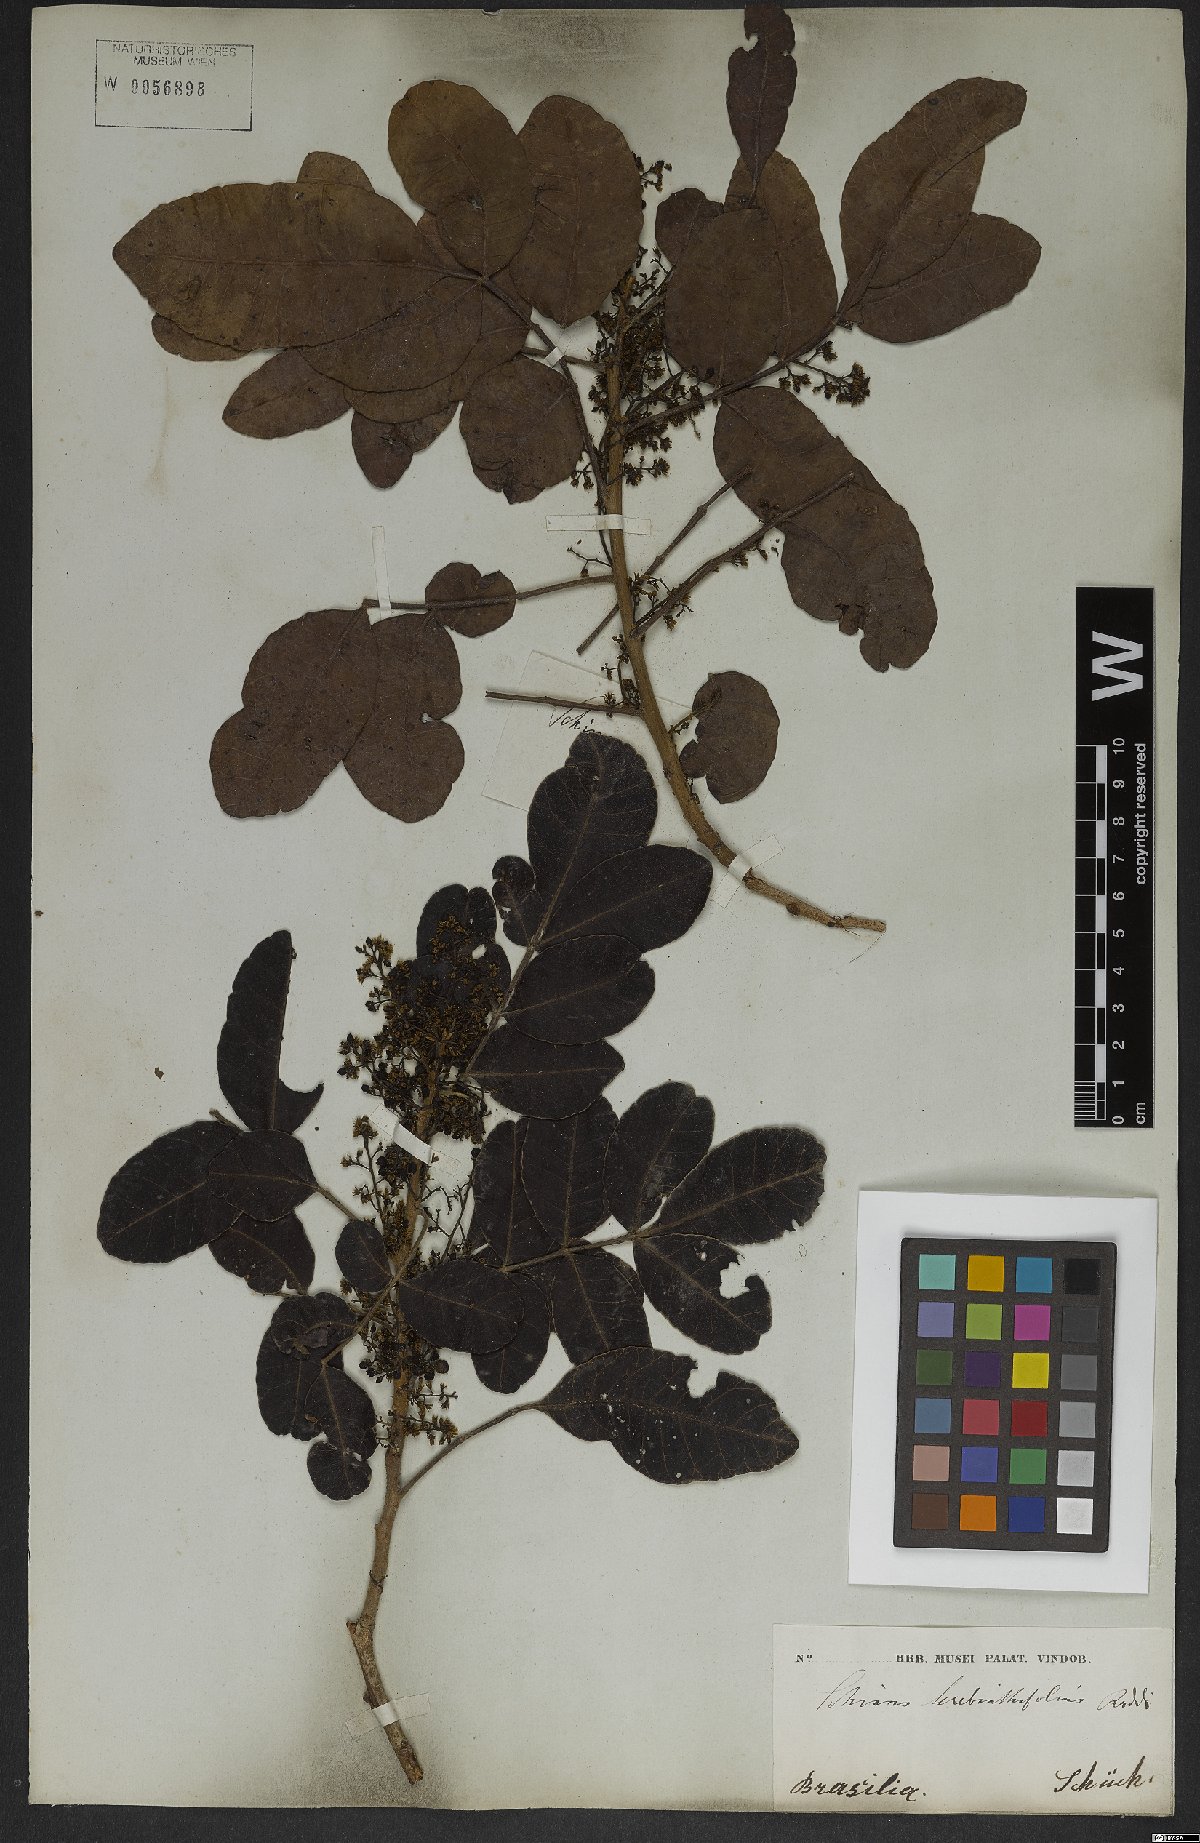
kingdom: Plantae
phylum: Tracheophyta
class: Magnoliopsida
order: Sapindales
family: Anacardiaceae
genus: Schinus
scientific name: Schinus terebinthifolia
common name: Brazilian peppertree
